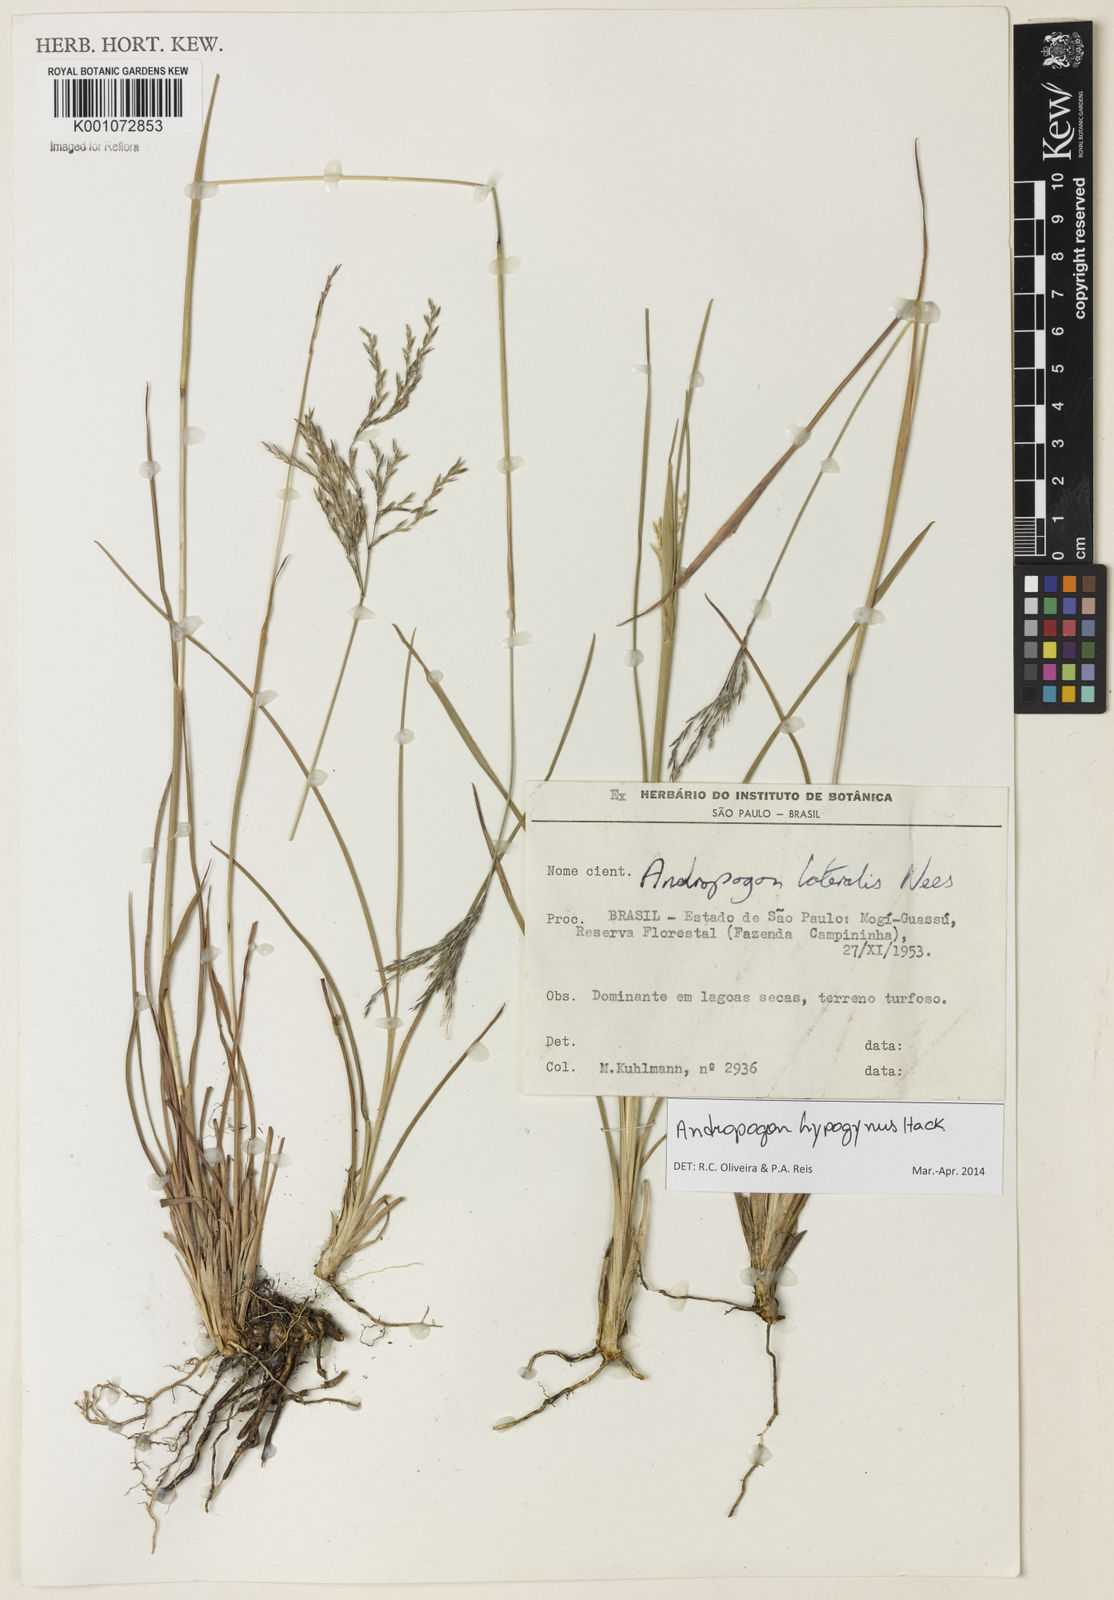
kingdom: Plantae
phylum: Tracheophyta
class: Liliopsida
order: Poales
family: Poaceae
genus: Andropogon
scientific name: Andropogon hypogynus
